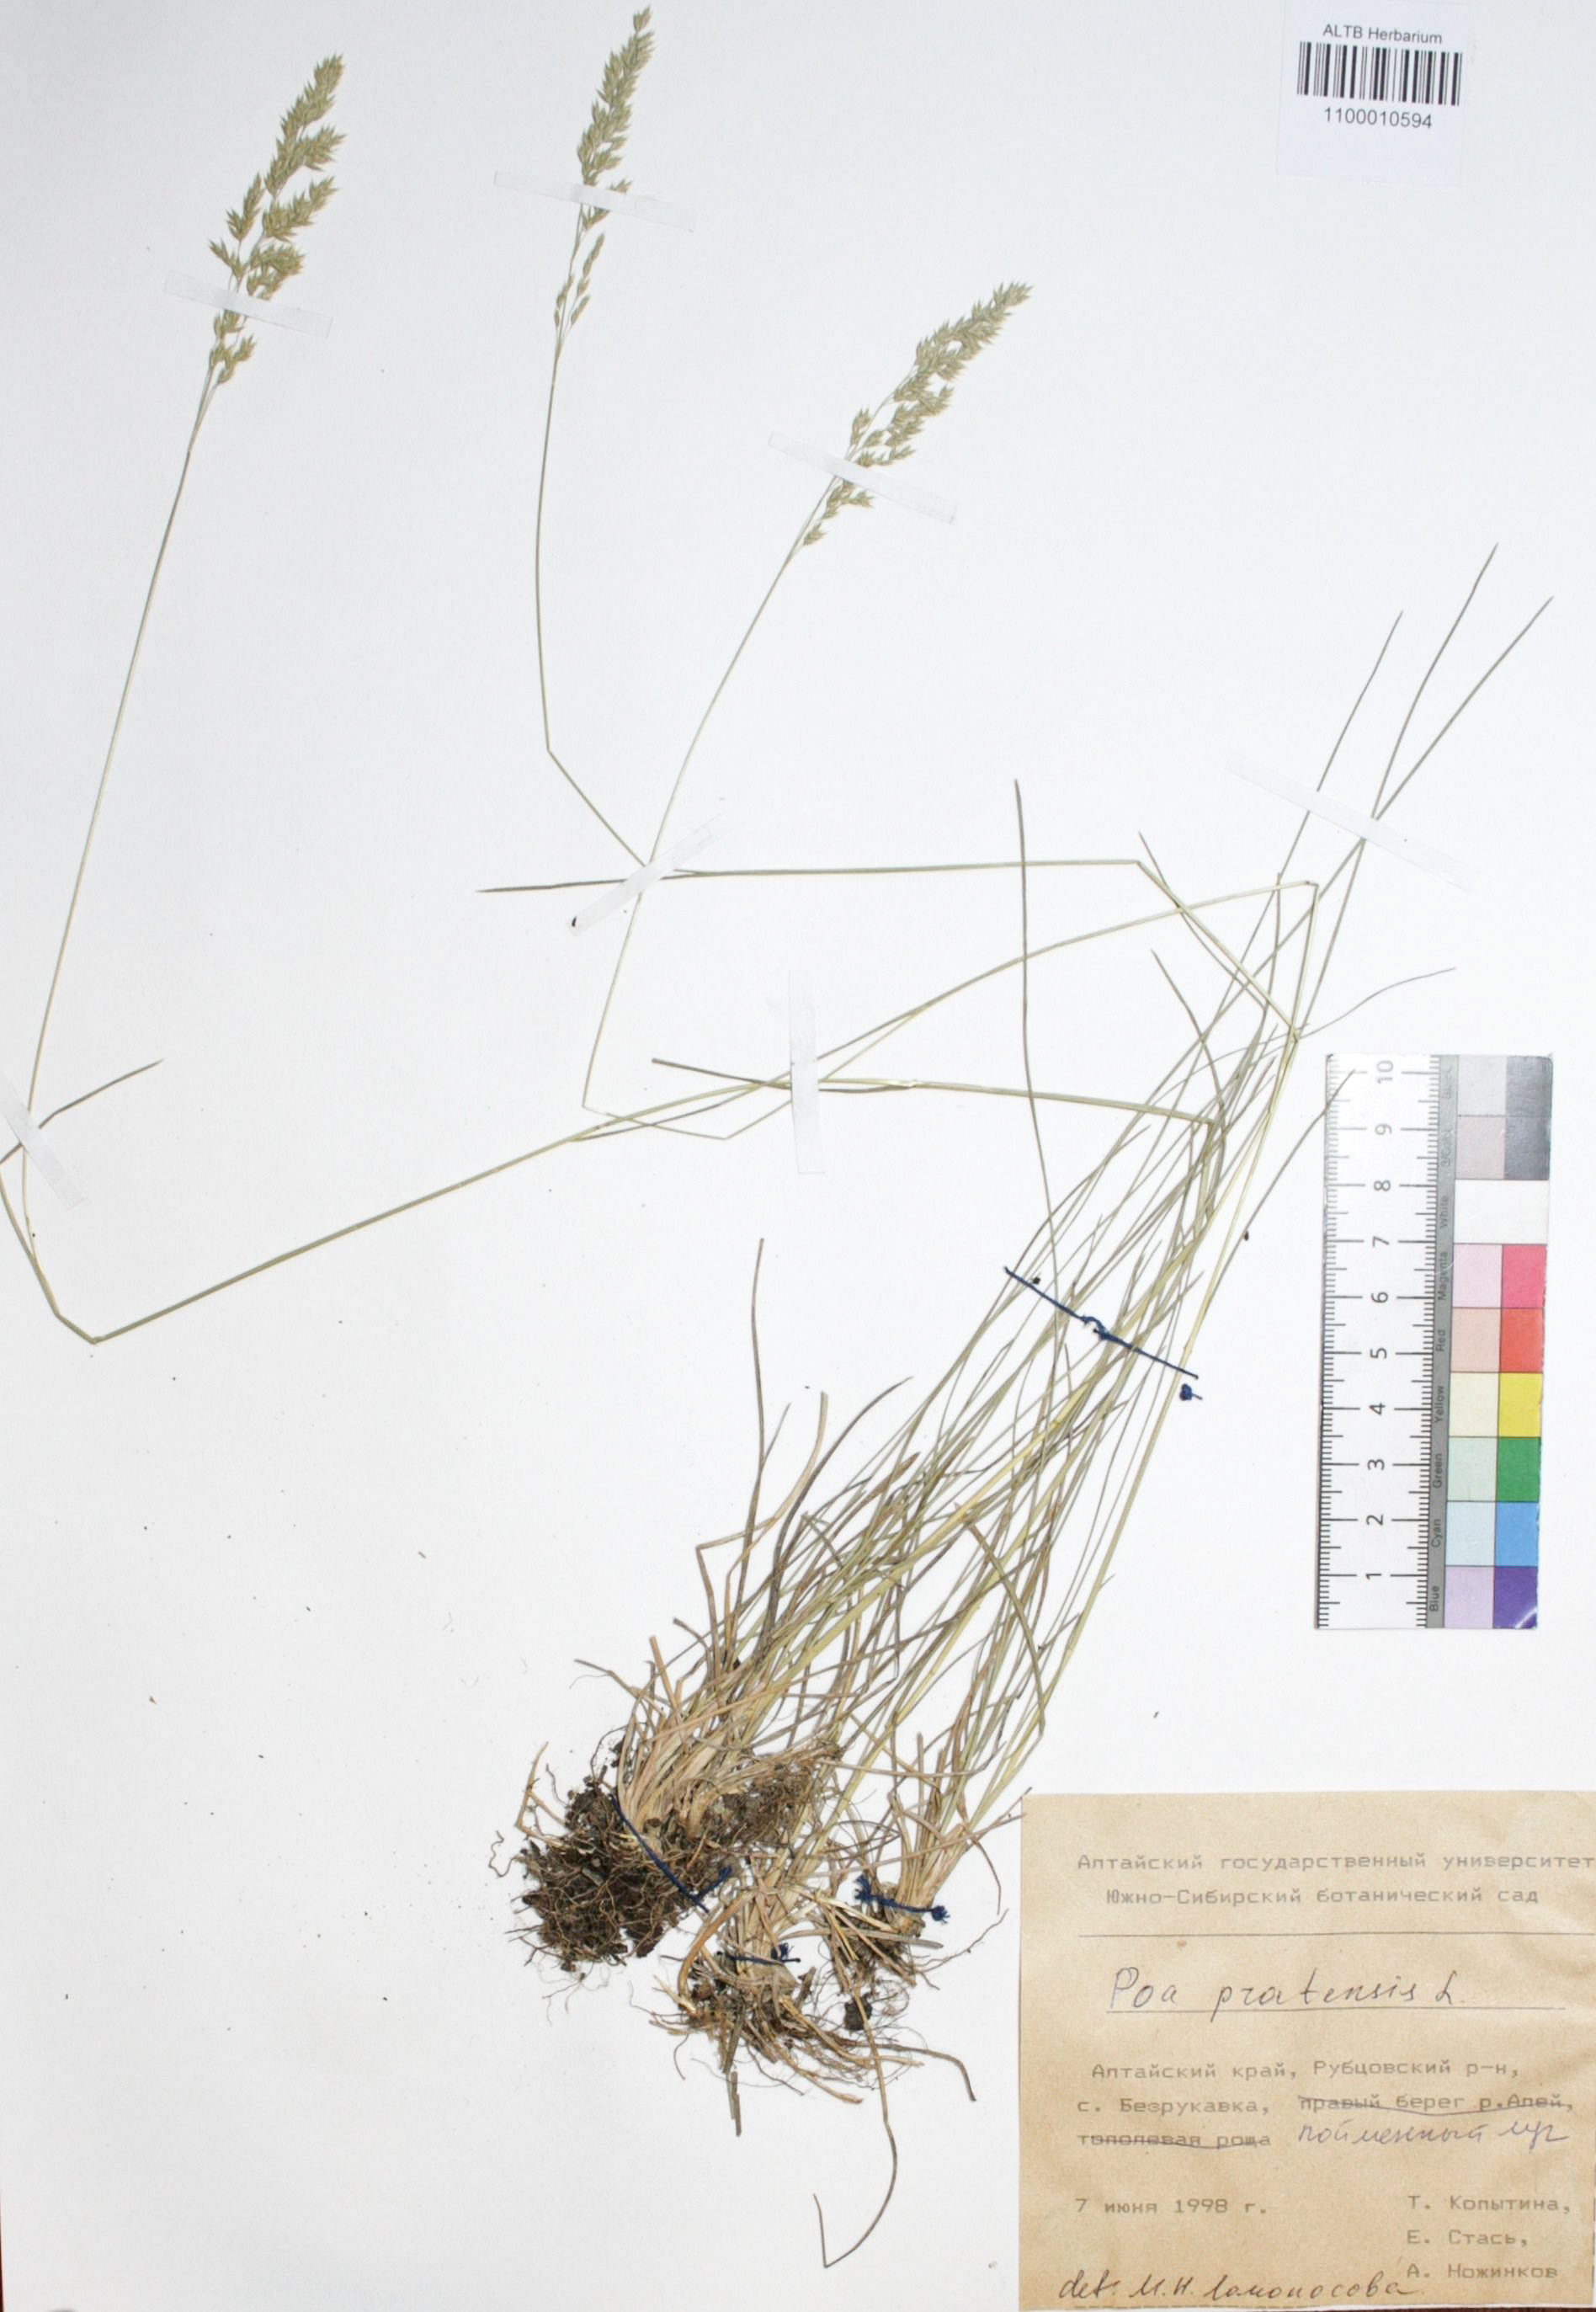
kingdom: Plantae
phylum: Tracheophyta
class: Liliopsida
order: Poales
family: Poaceae
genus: Poa
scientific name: Poa pratensis
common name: Kentucky bluegrass
